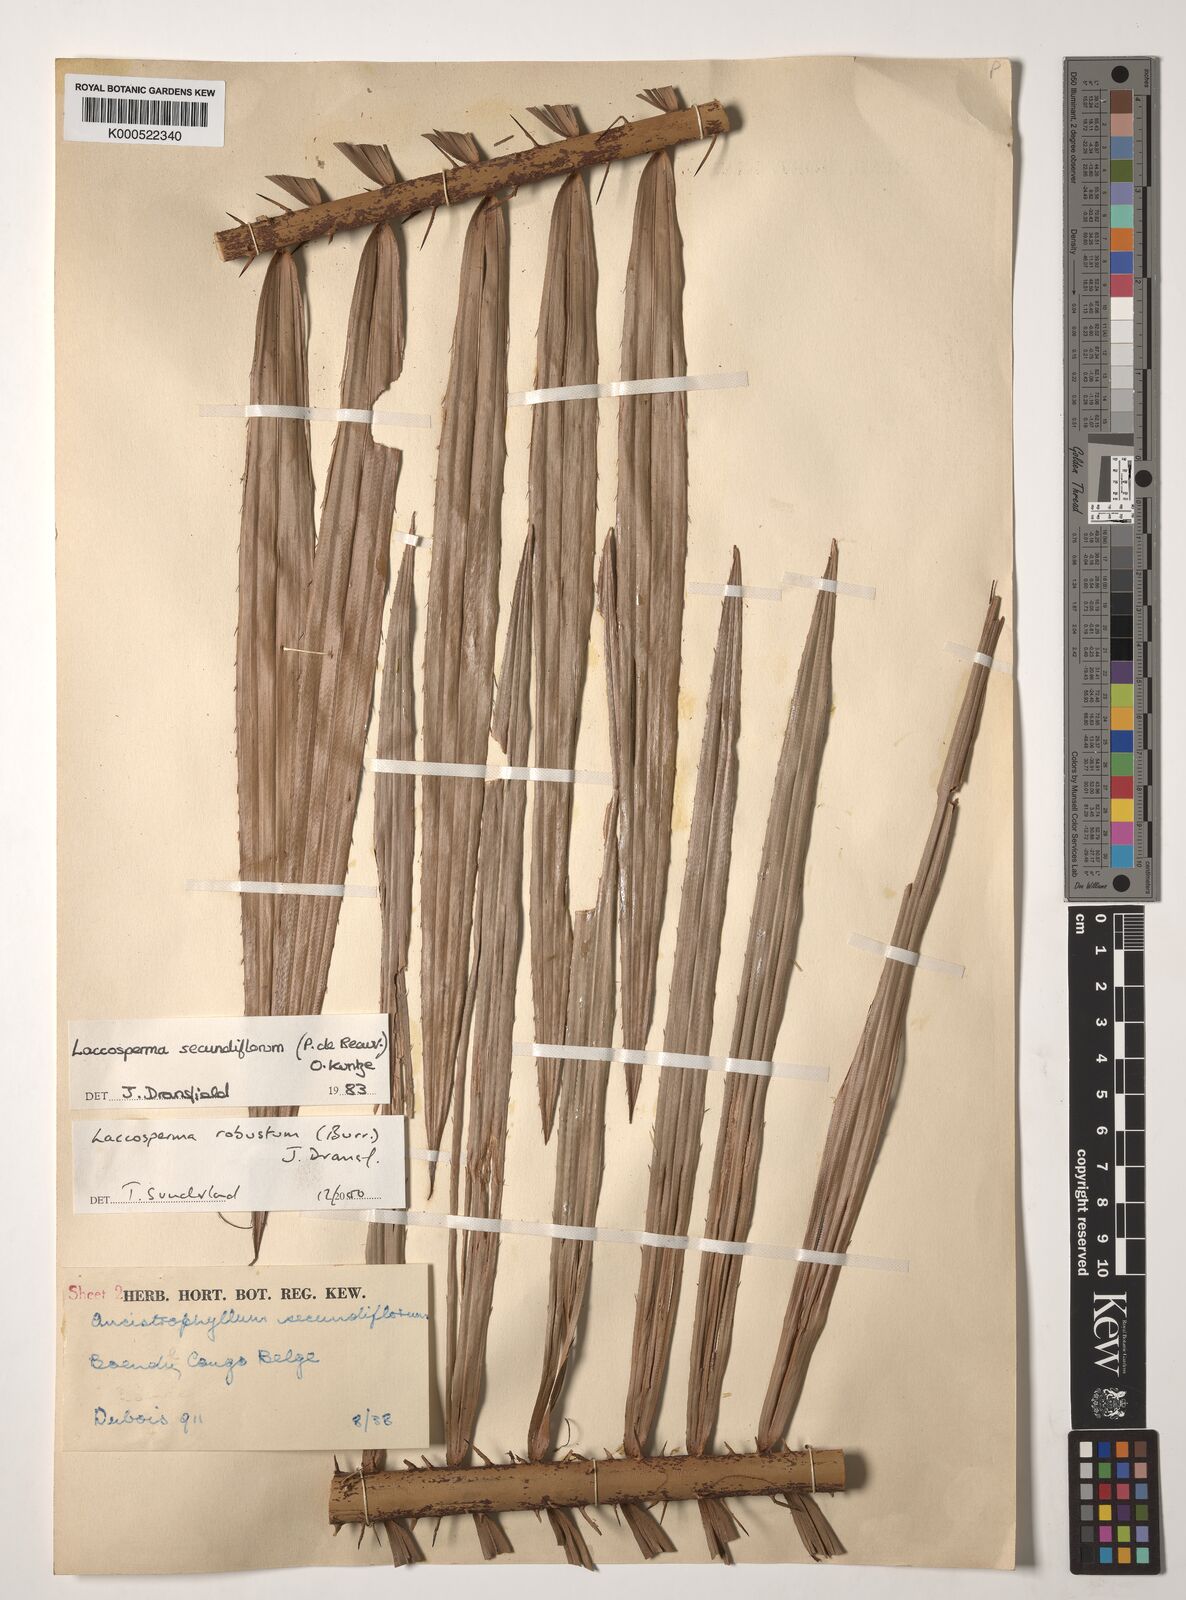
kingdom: Plantae
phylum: Tracheophyta
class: Liliopsida
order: Arecales
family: Arecaceae
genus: Laccosperma
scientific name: Laccosperma robustum
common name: Rattan
